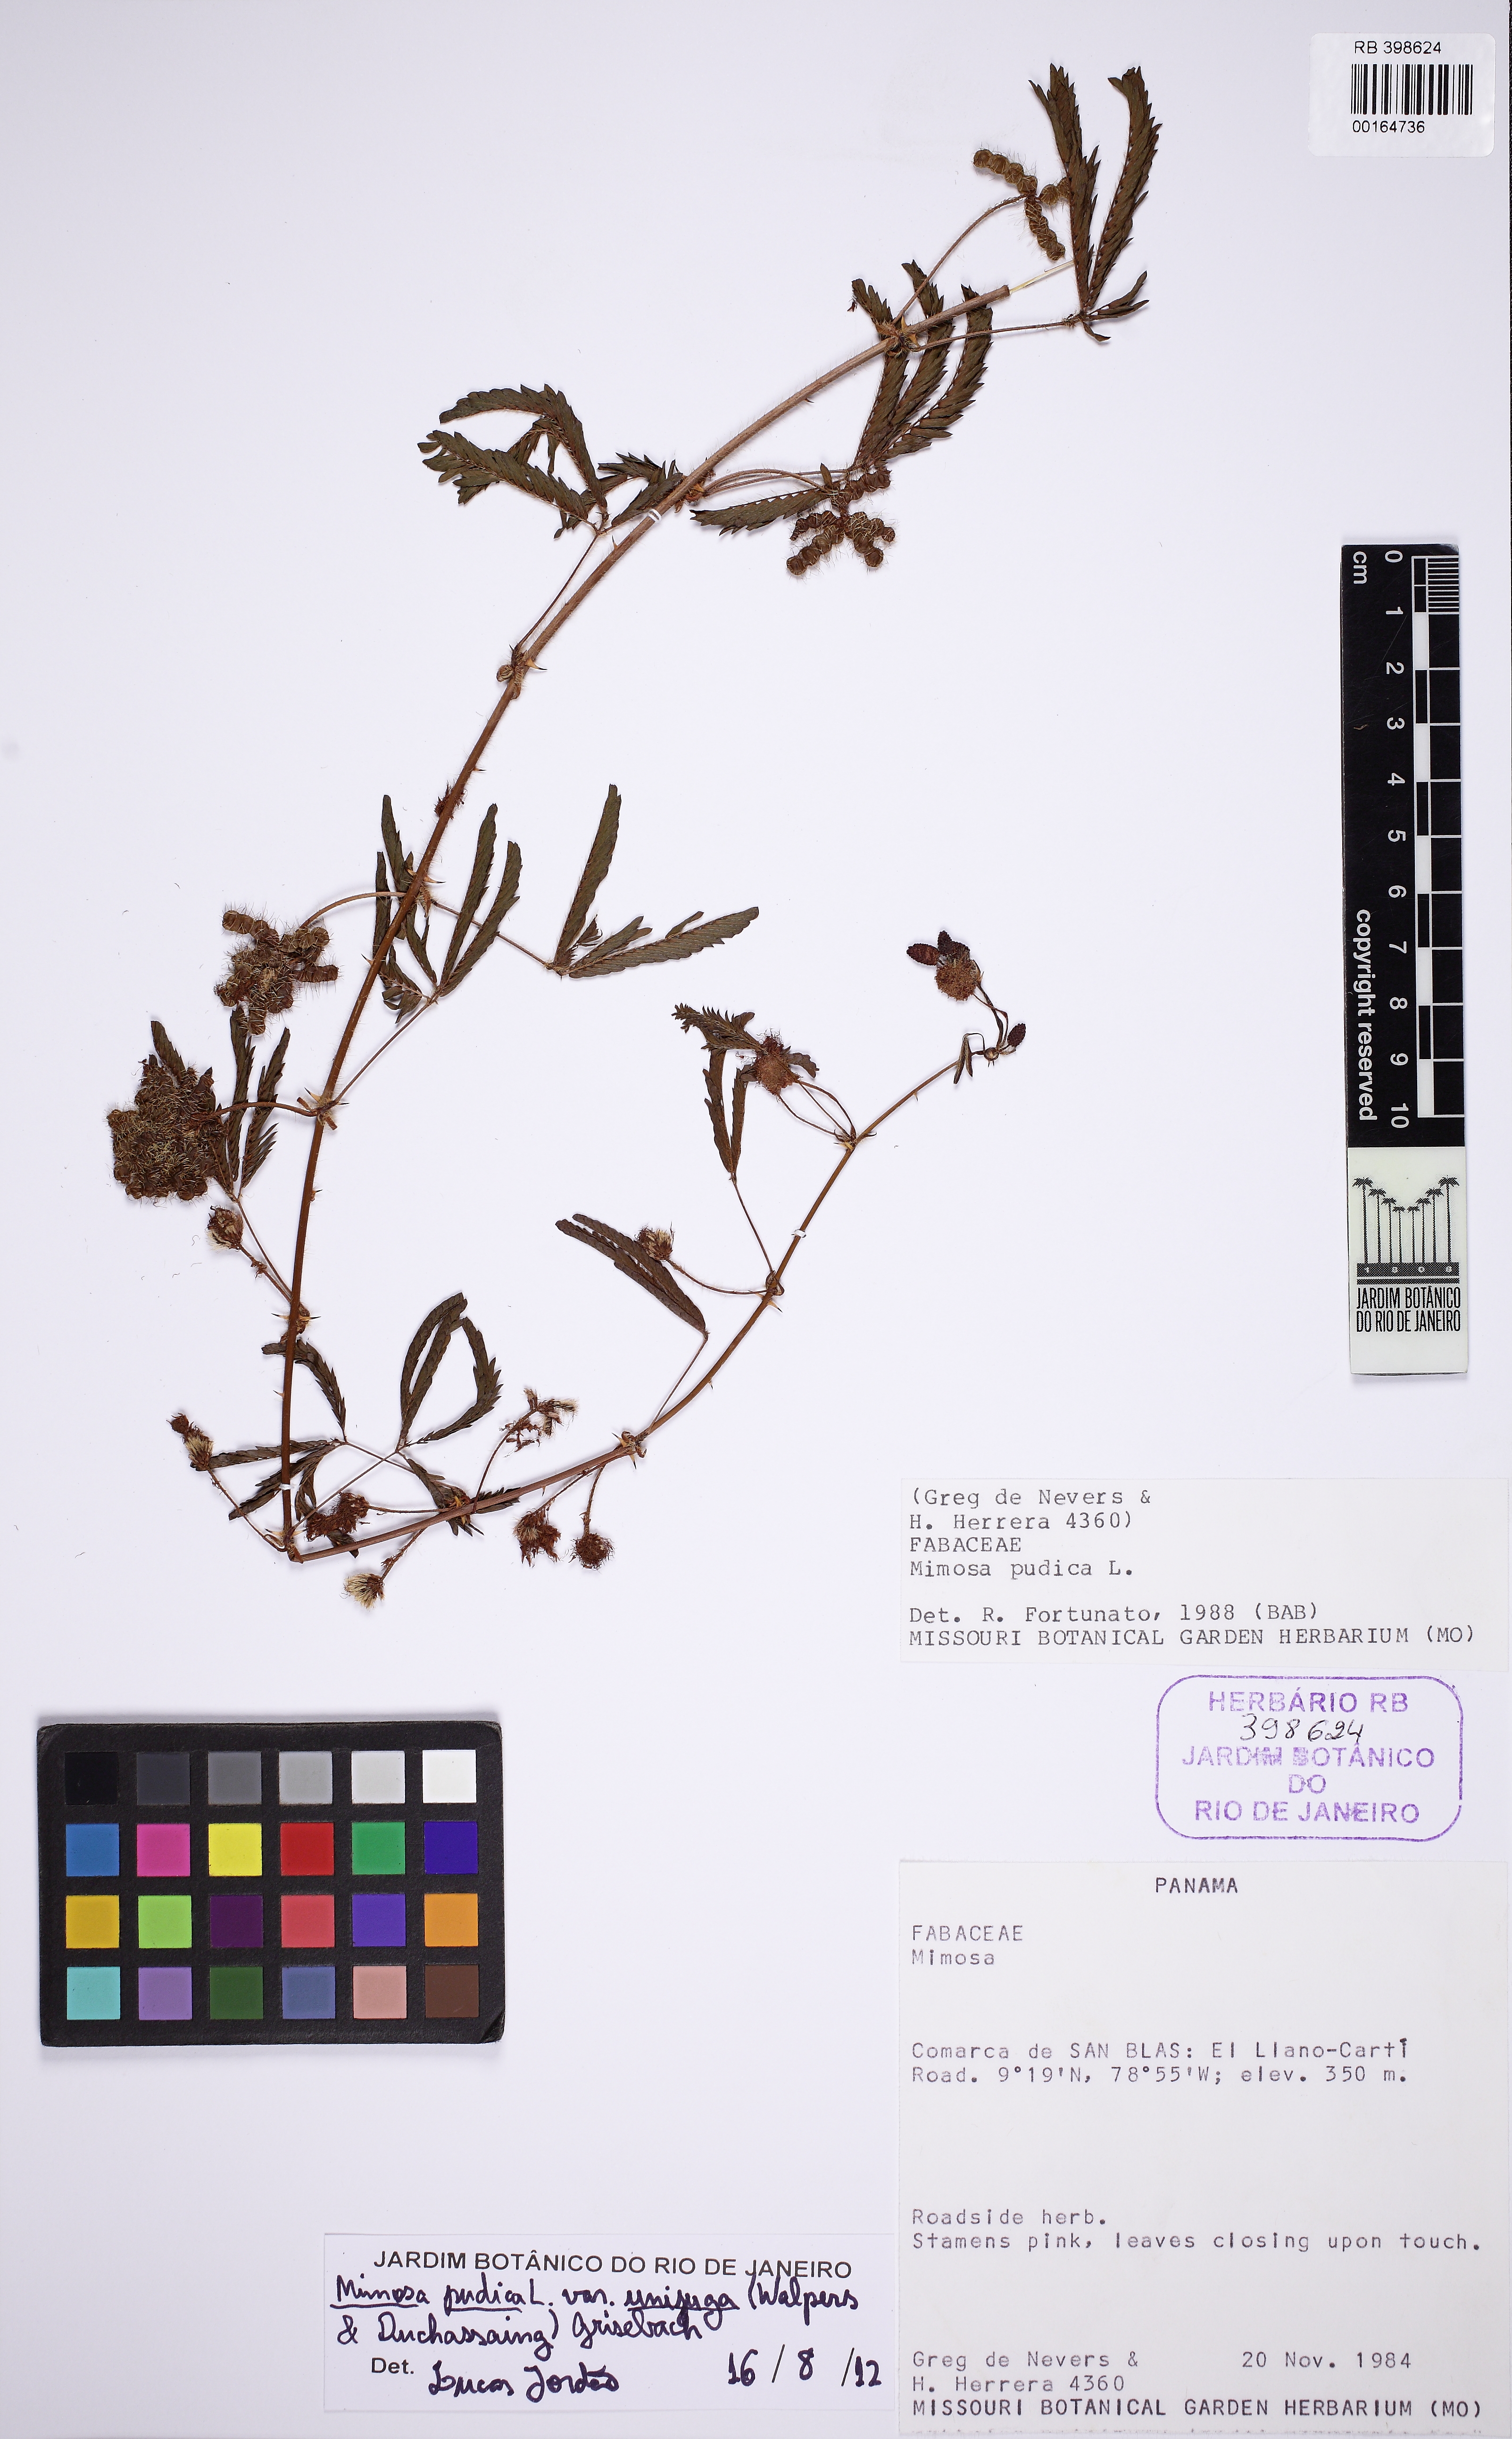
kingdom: Plantae
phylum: Tracheophyta
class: Magnoliopsida
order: Fabales
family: Fabaceae
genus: Mimosa
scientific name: Mimosa pudica
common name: Sensitive plant
